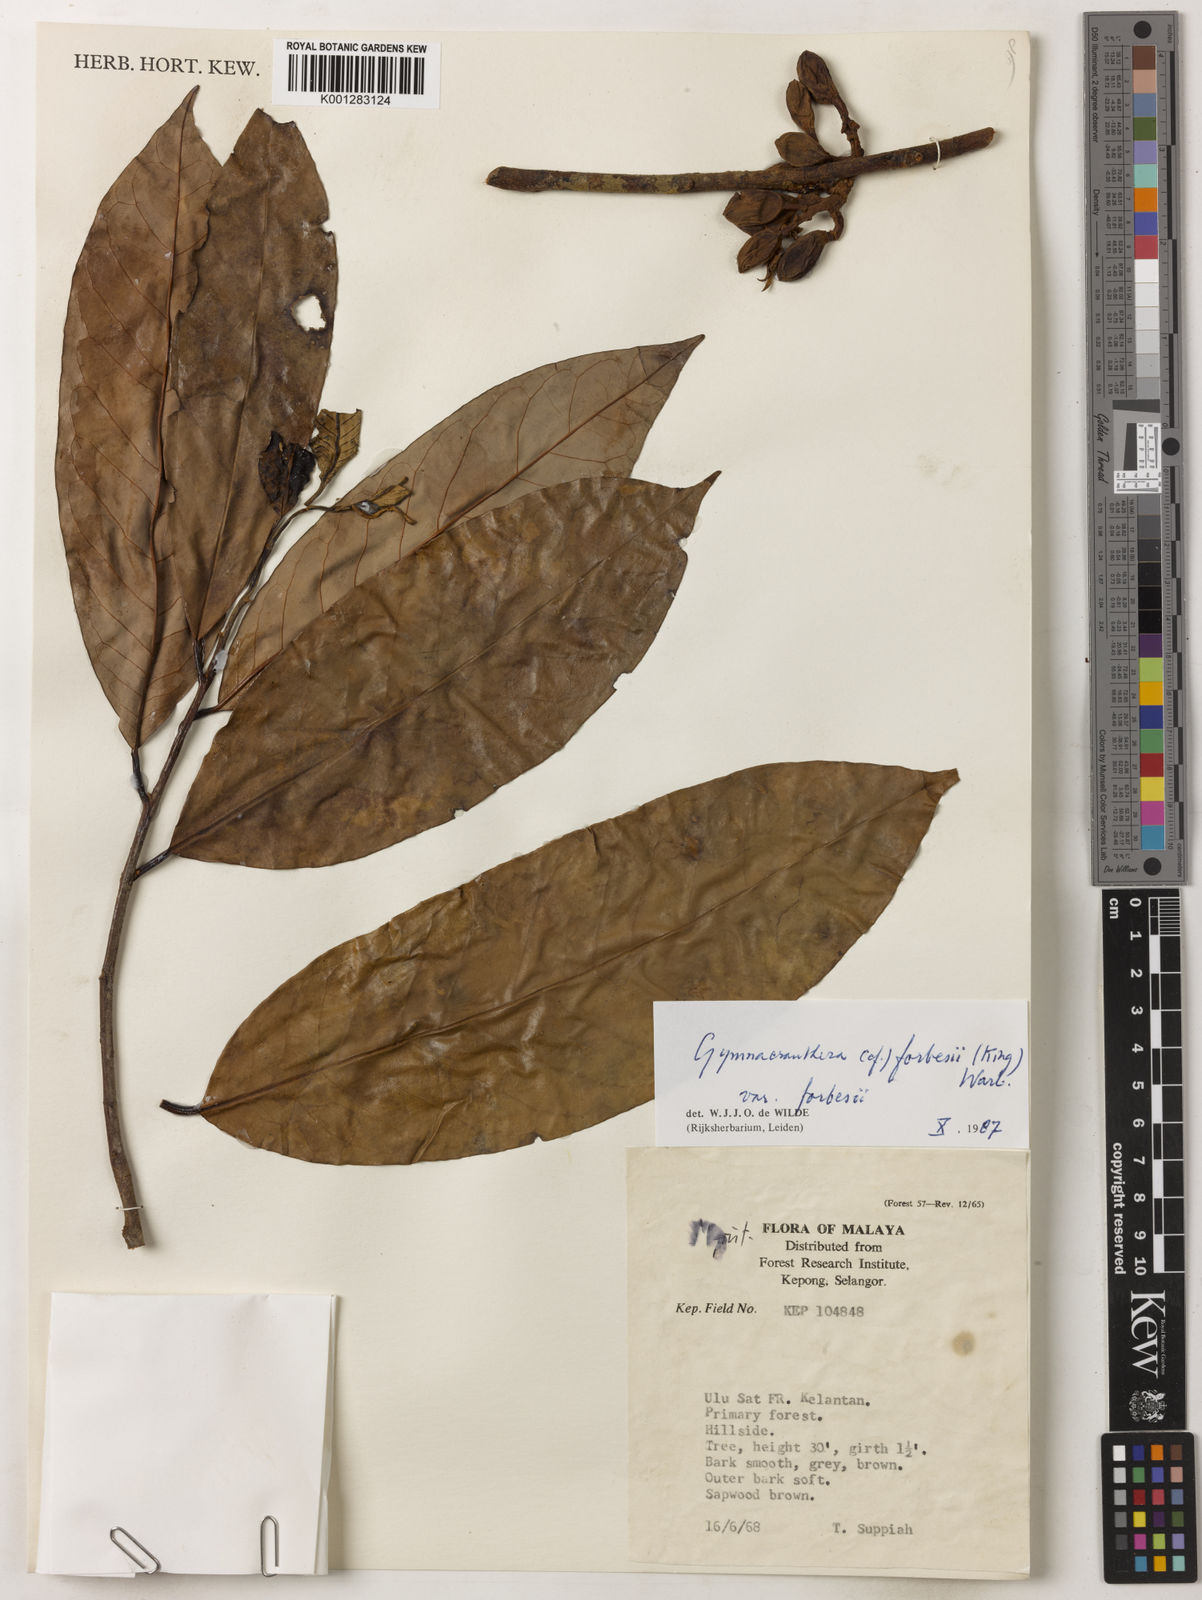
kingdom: Plantae
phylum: Tracheophyta
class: Magnoliopsida
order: Magnoliales
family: Myristicaceae
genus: Gymnacranthera
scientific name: Gymnacranthera forbesii
